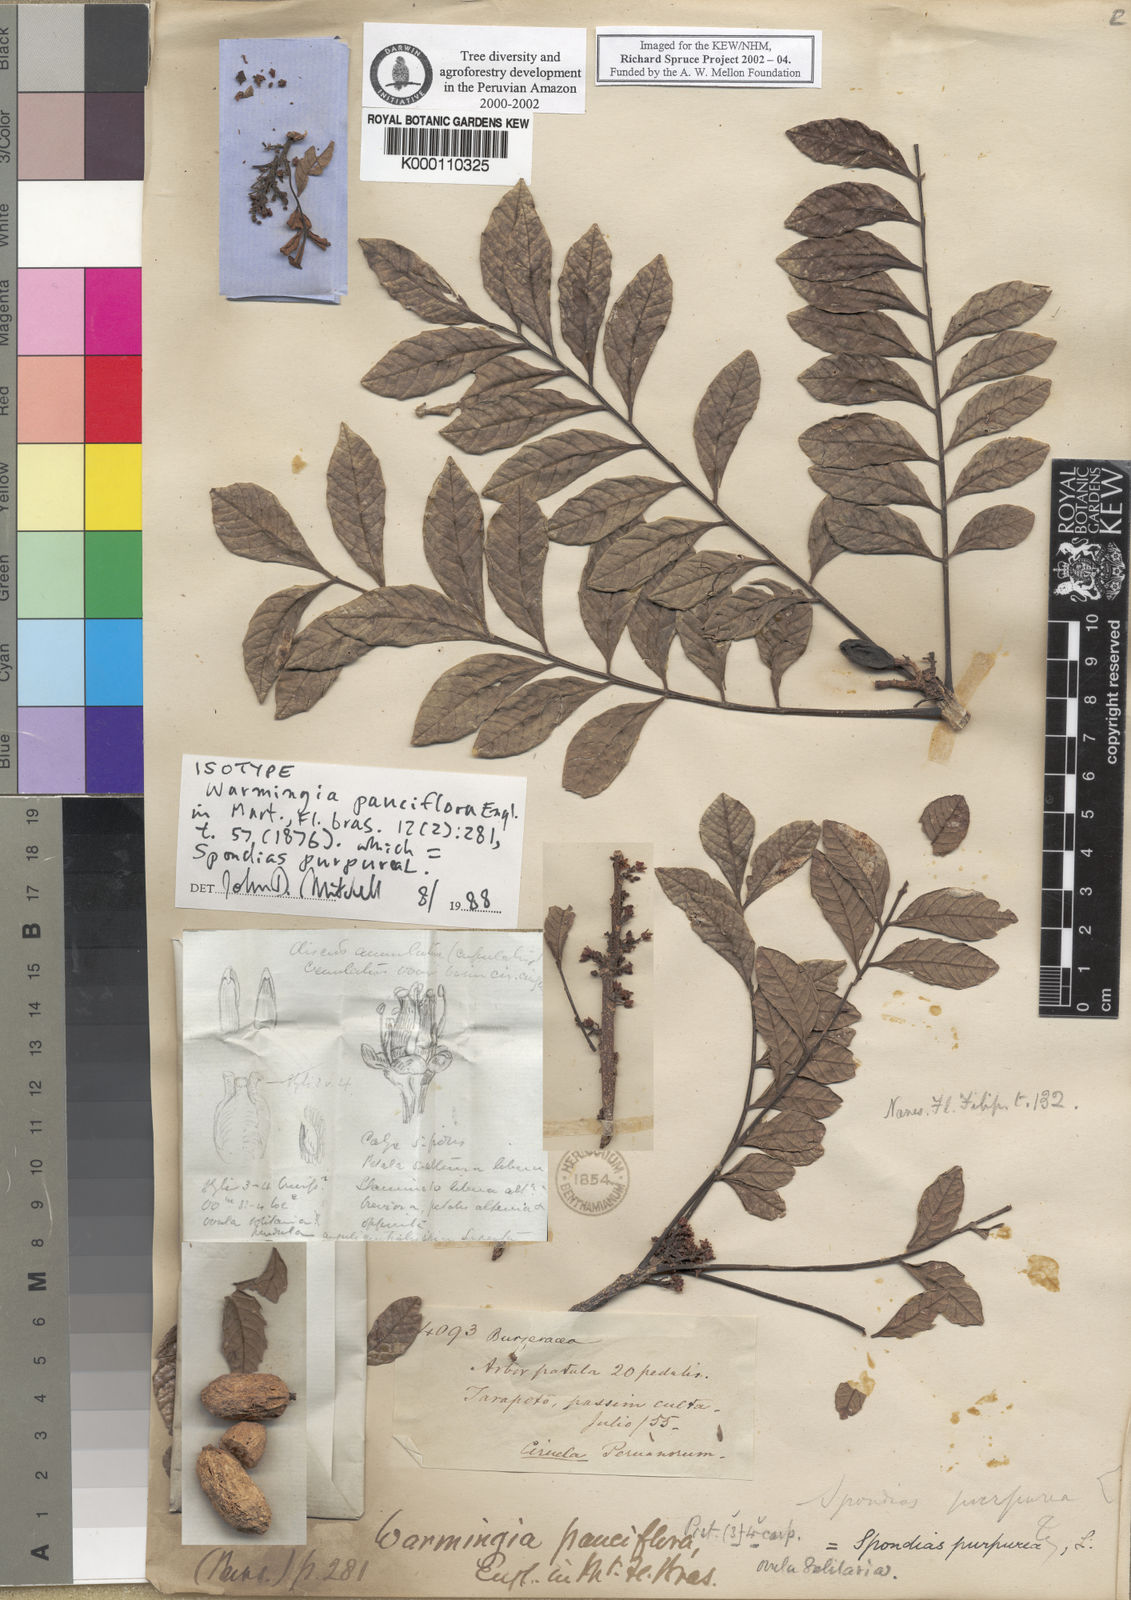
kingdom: Plantae
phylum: Tracheophyta
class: Magnoliopsida
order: Sapindales
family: Anacardiaceae
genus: Spondias
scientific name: Spondias purpurea
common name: Purple mombin
